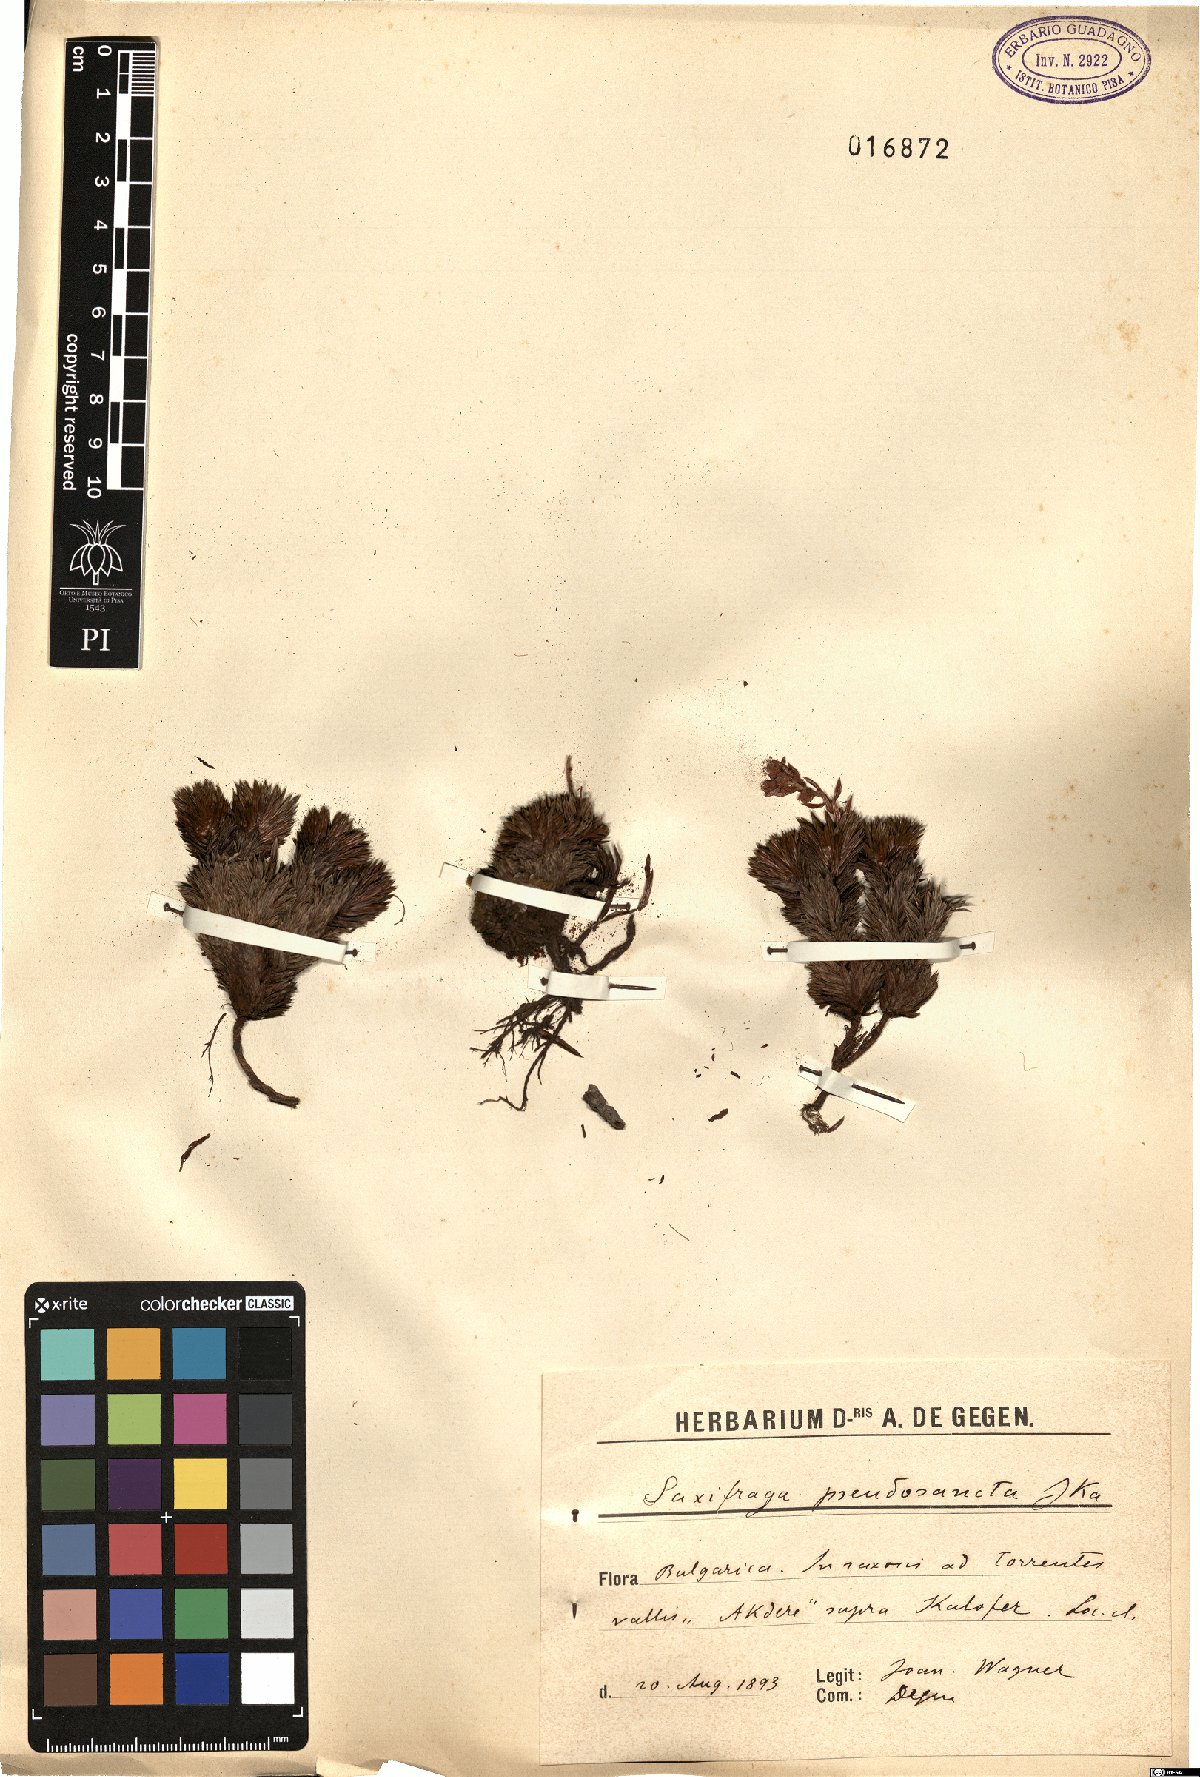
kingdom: Plantae
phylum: Tracheophyta
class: Magnoliopsida
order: Saxifragales
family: Saxifragaceae
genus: Saxifraga
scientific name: Saxifraga juniperifolia
